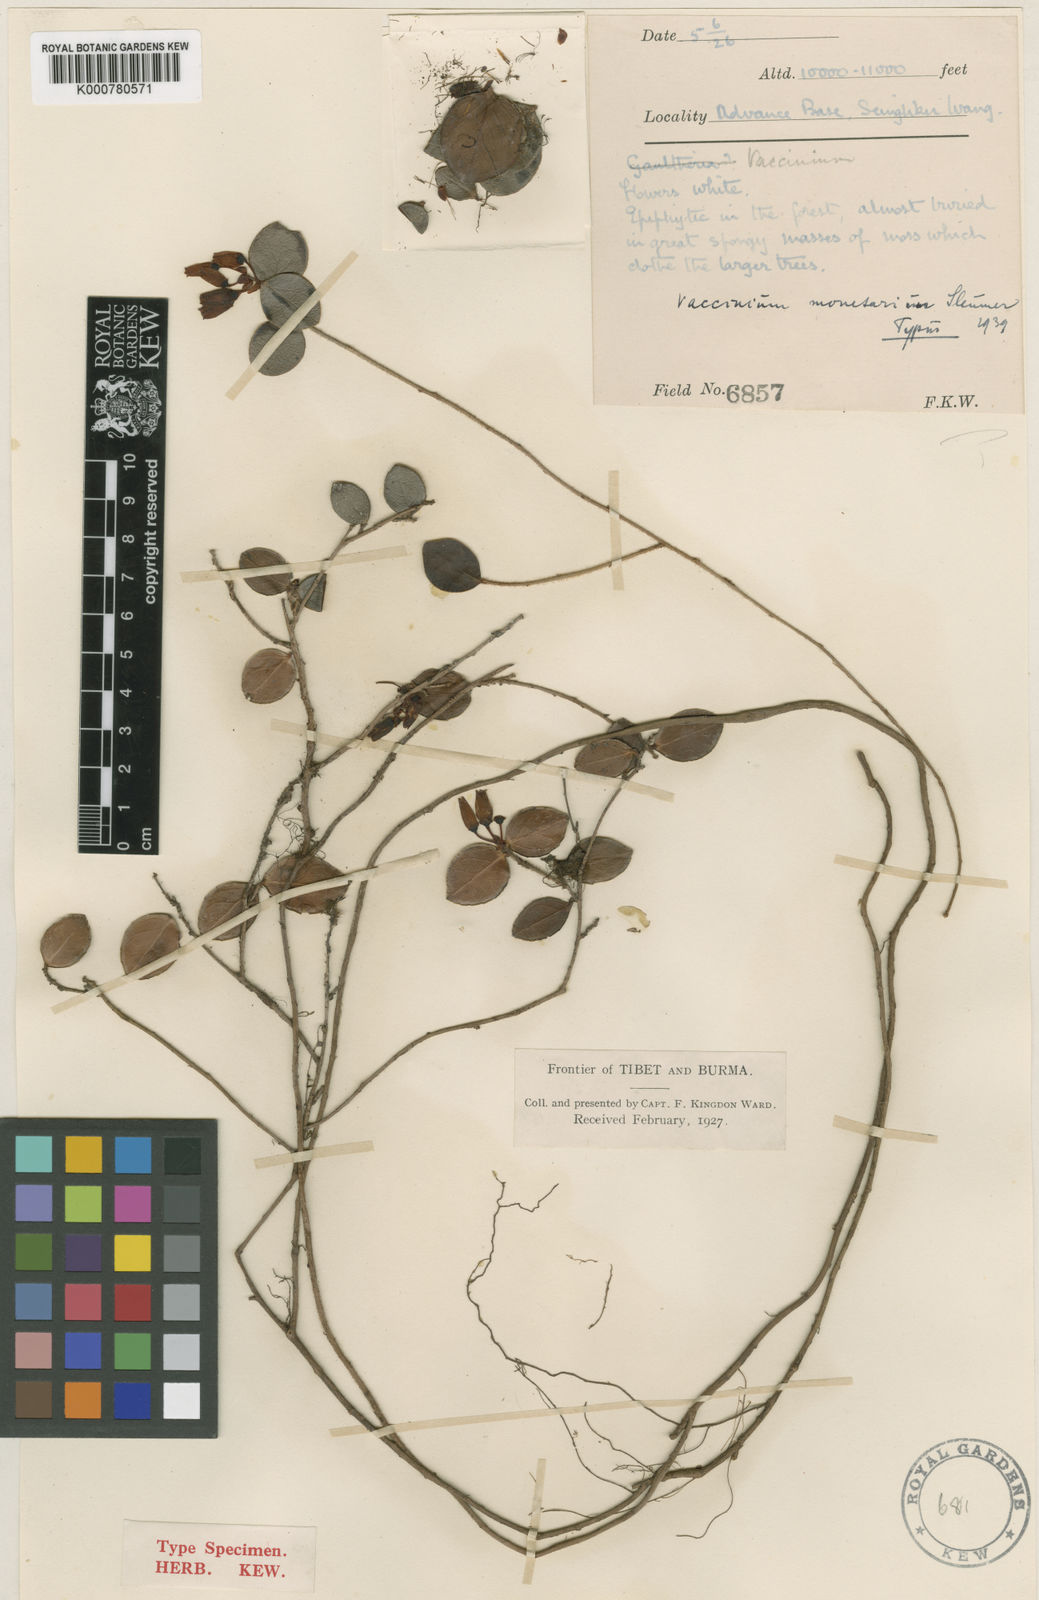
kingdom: Plantae
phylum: Tracheophyta
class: Magnoliopsida
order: Ericales
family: Ericaceae
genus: Vaccinium
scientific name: Vaccinium monetarium
